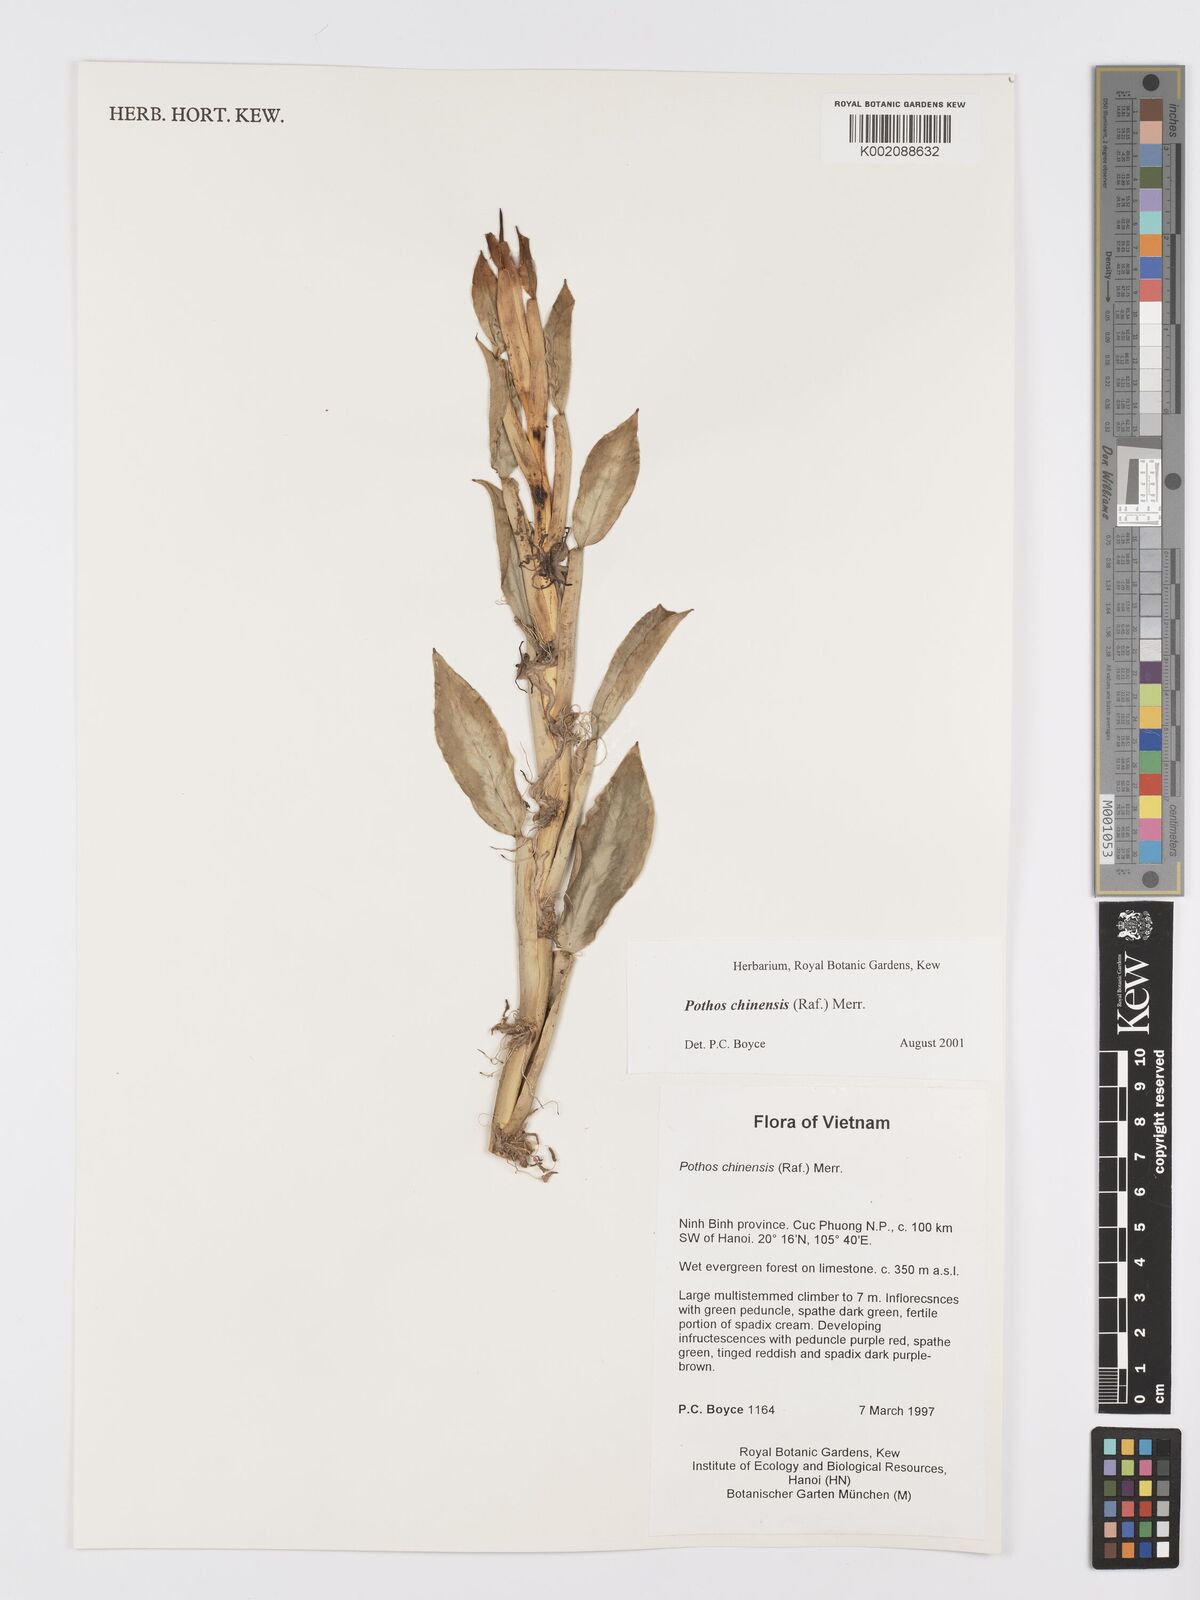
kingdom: Plantae
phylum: Tracheophyta
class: Liliopsida
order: Alismatales
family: Araceae
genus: Pothos
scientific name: Pothos chinensis
